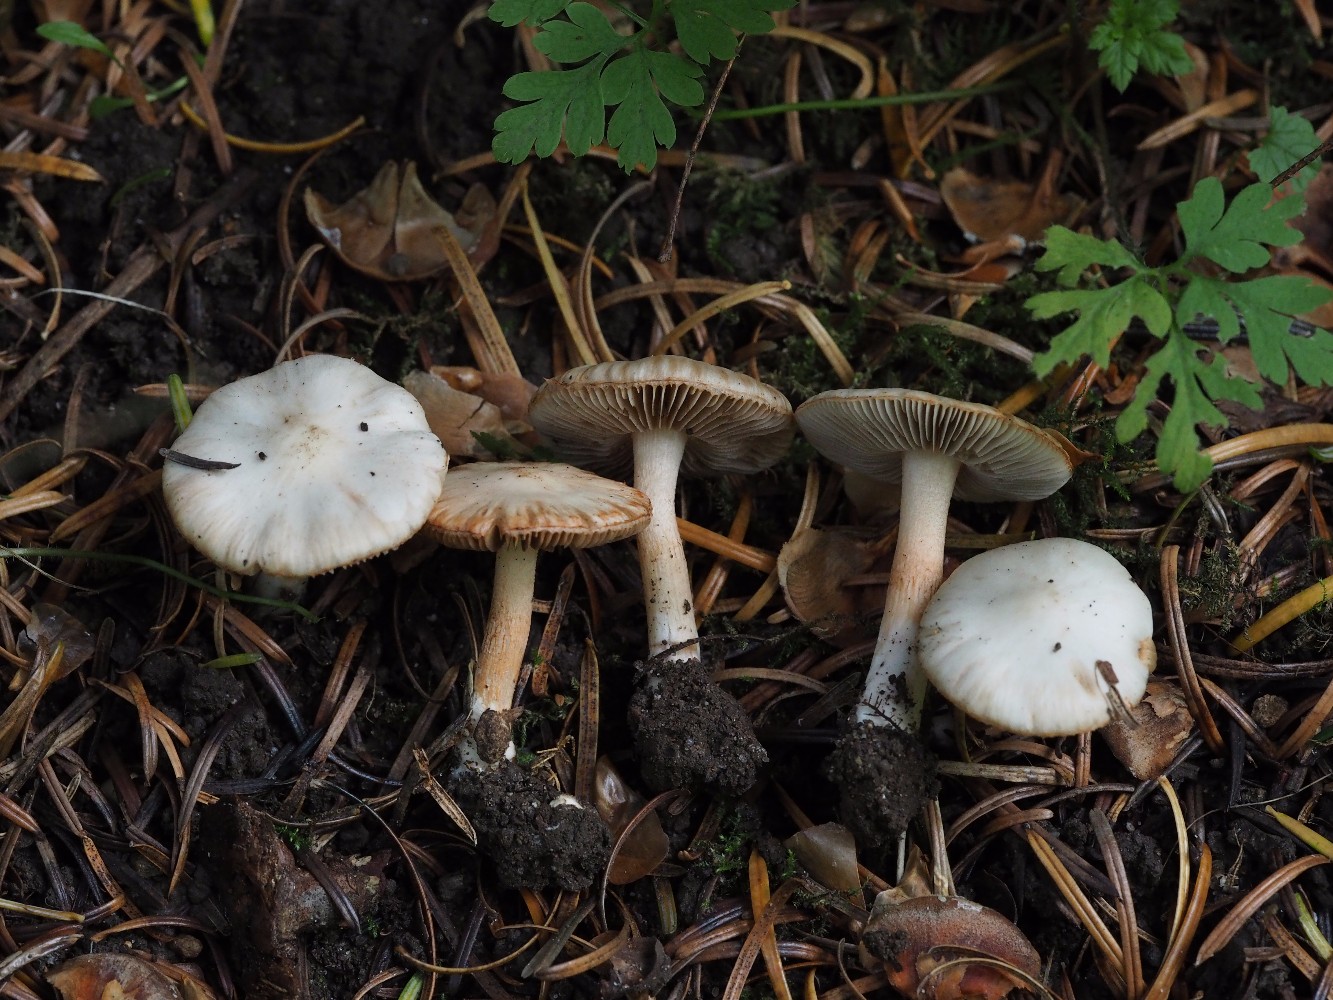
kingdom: Fungi
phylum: Basidiomycota
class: Agaricomycetes
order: Agaricales
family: Inocybaceae
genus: Inocybe
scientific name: Inocybe
